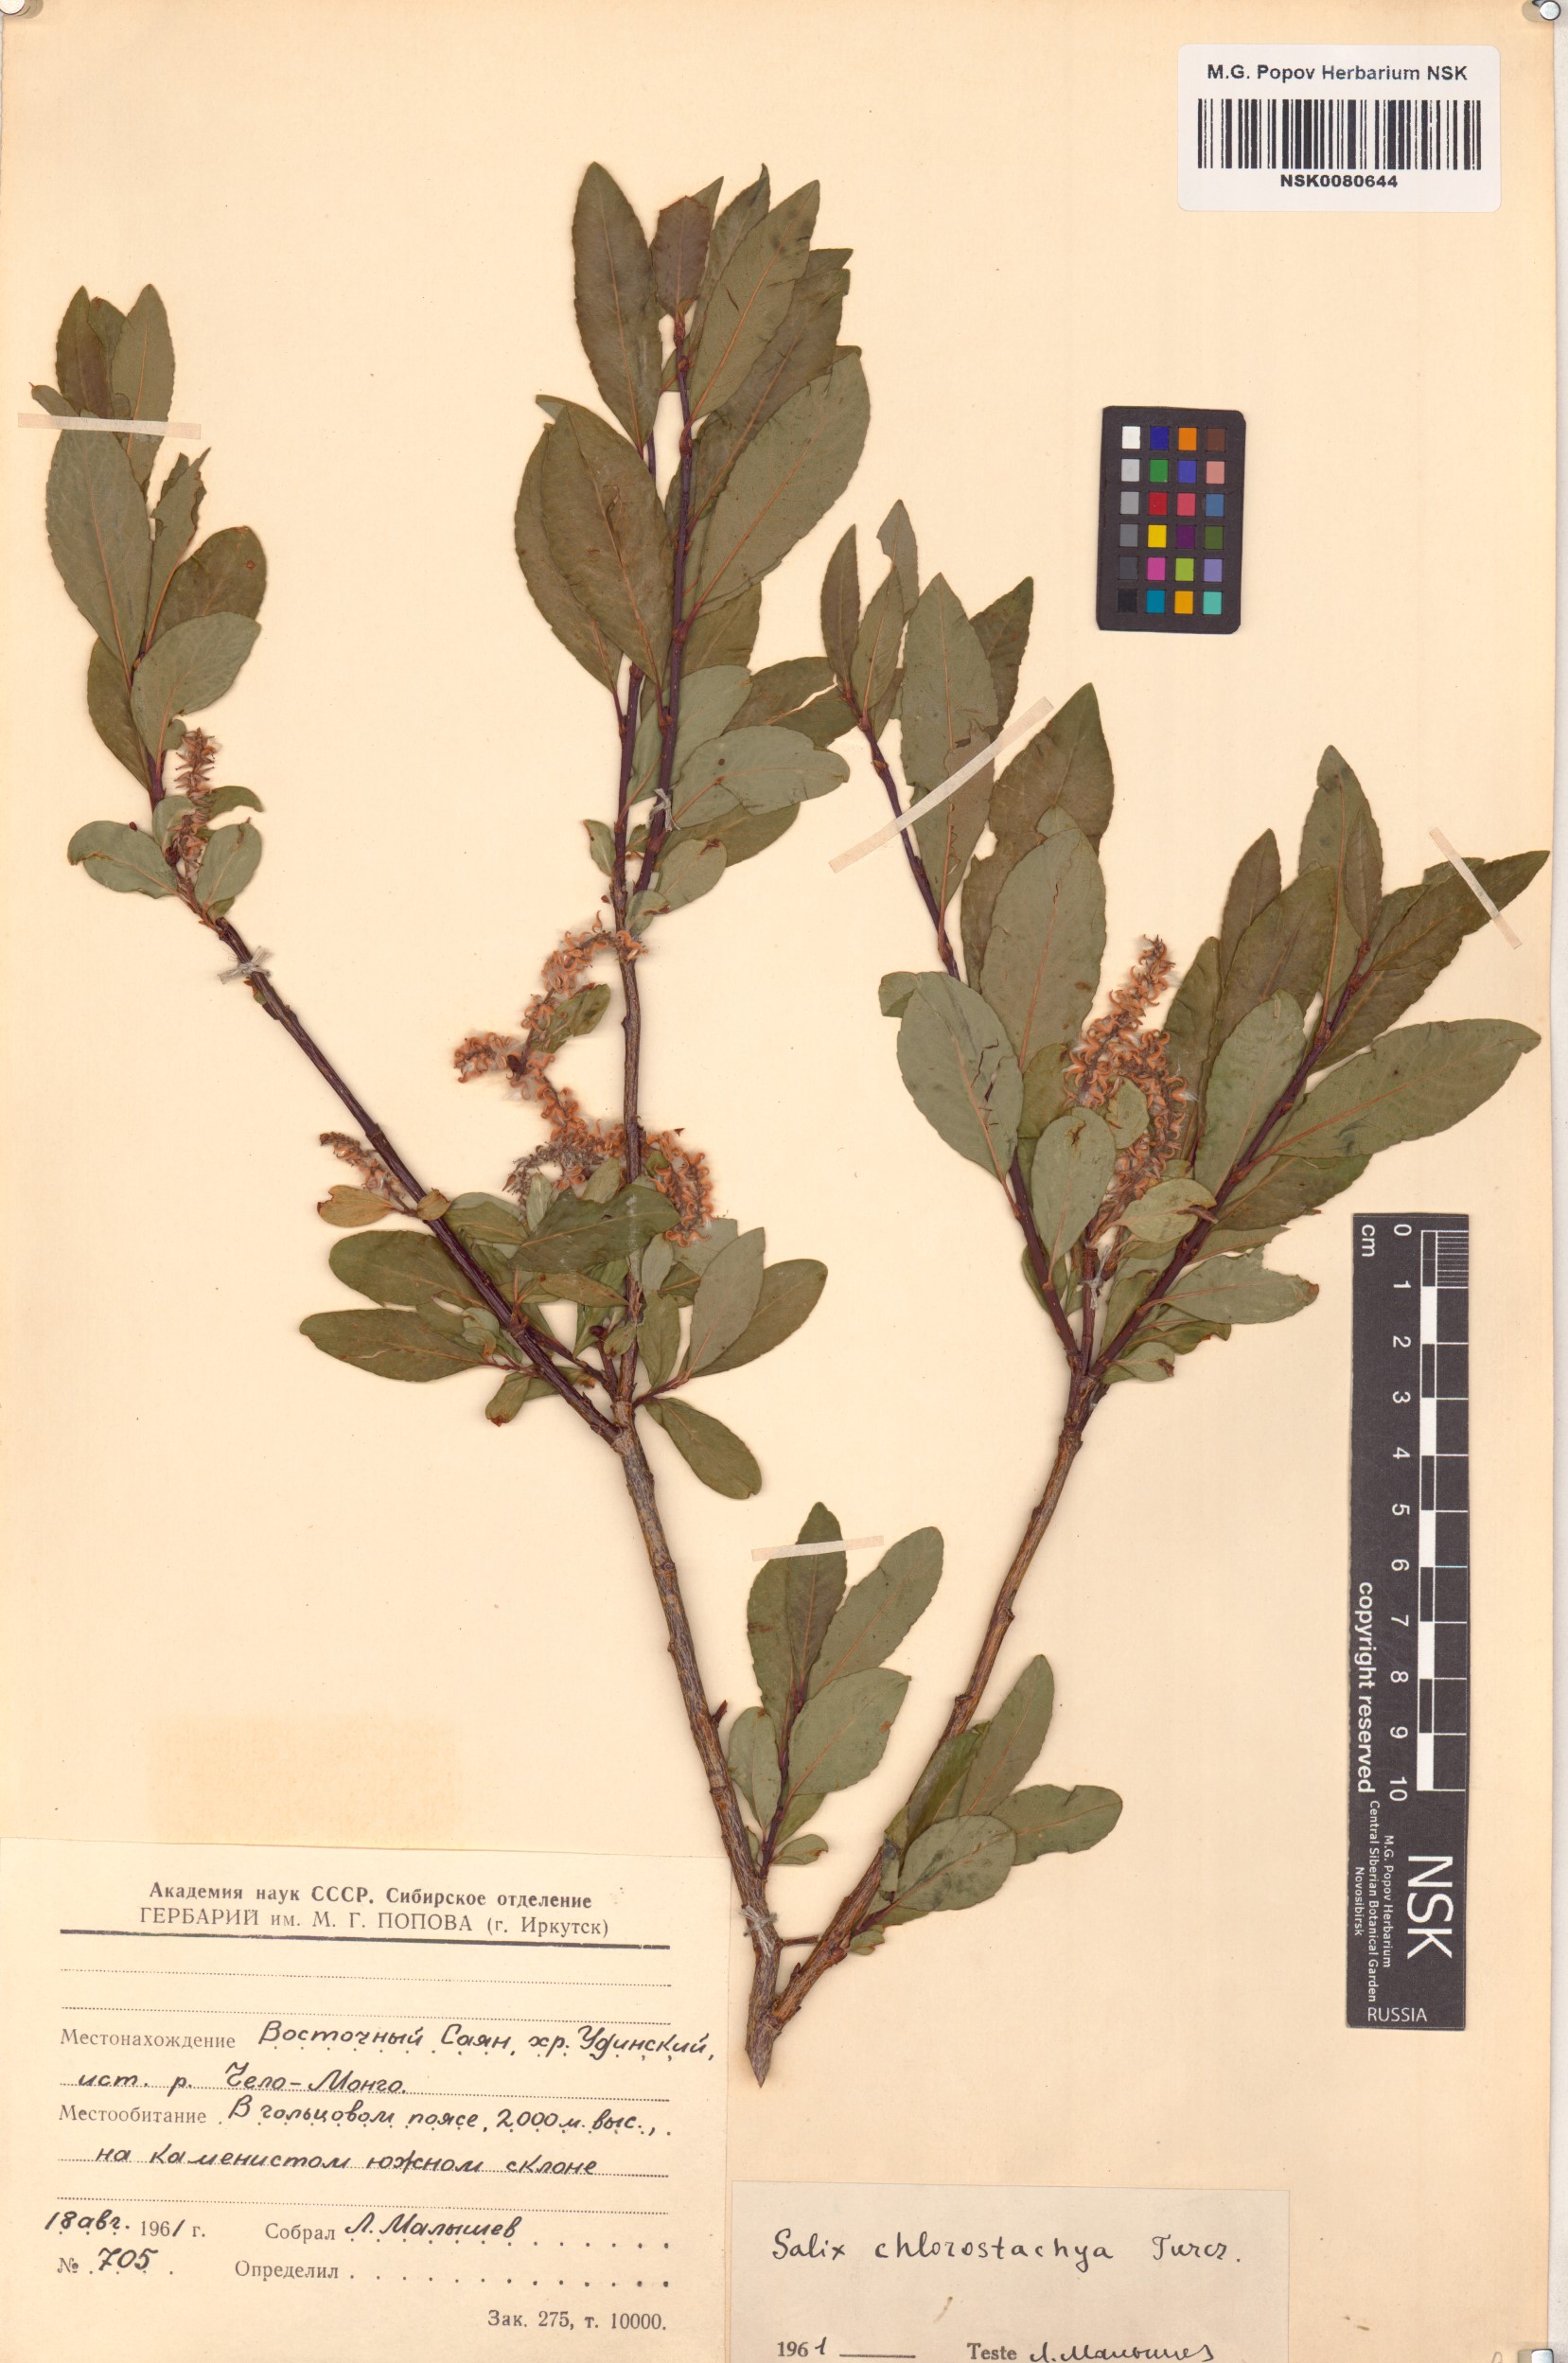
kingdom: Plantae
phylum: Tracheophyta
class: Magnoliopsida
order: Malpighiales
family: Salicaceae
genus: Salix
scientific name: Salix rhamnifolia
